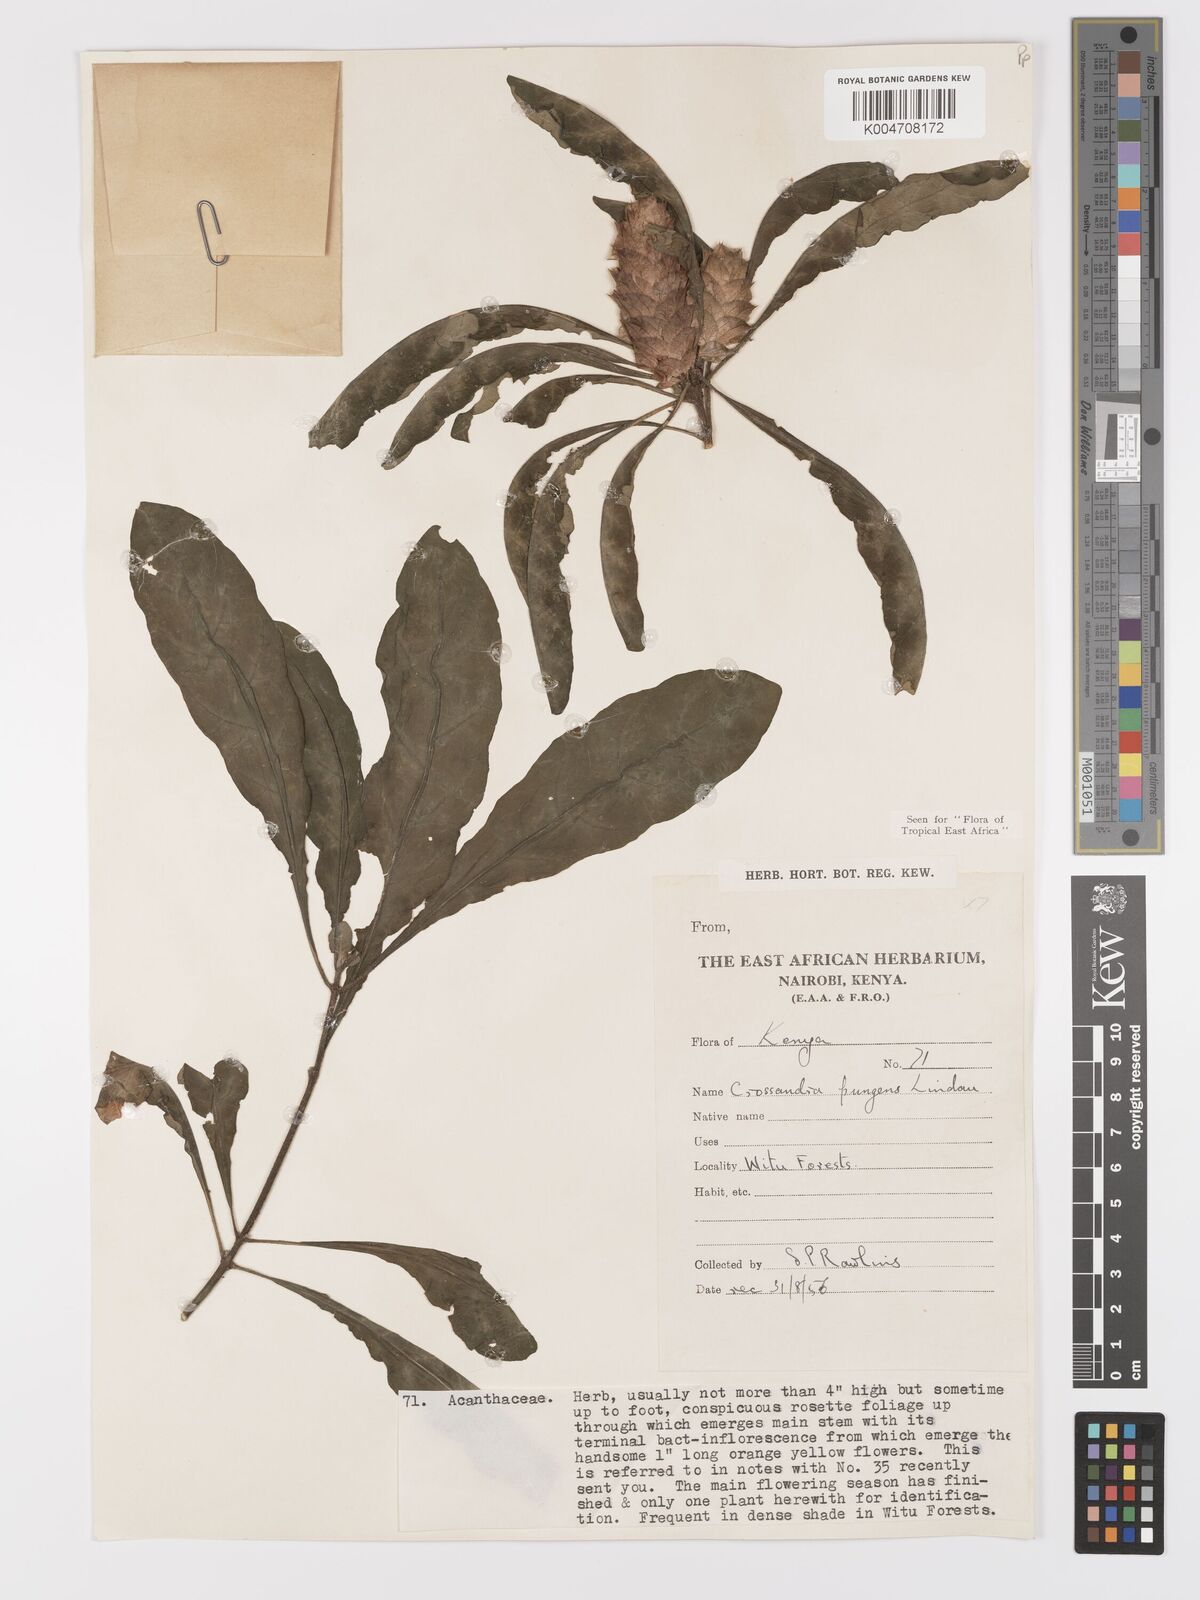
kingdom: Plantae
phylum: Tracheophyta
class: Magnoliopsida
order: Lamiales
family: Acanthaceae
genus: Crossandra
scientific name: Crossandra pungens
